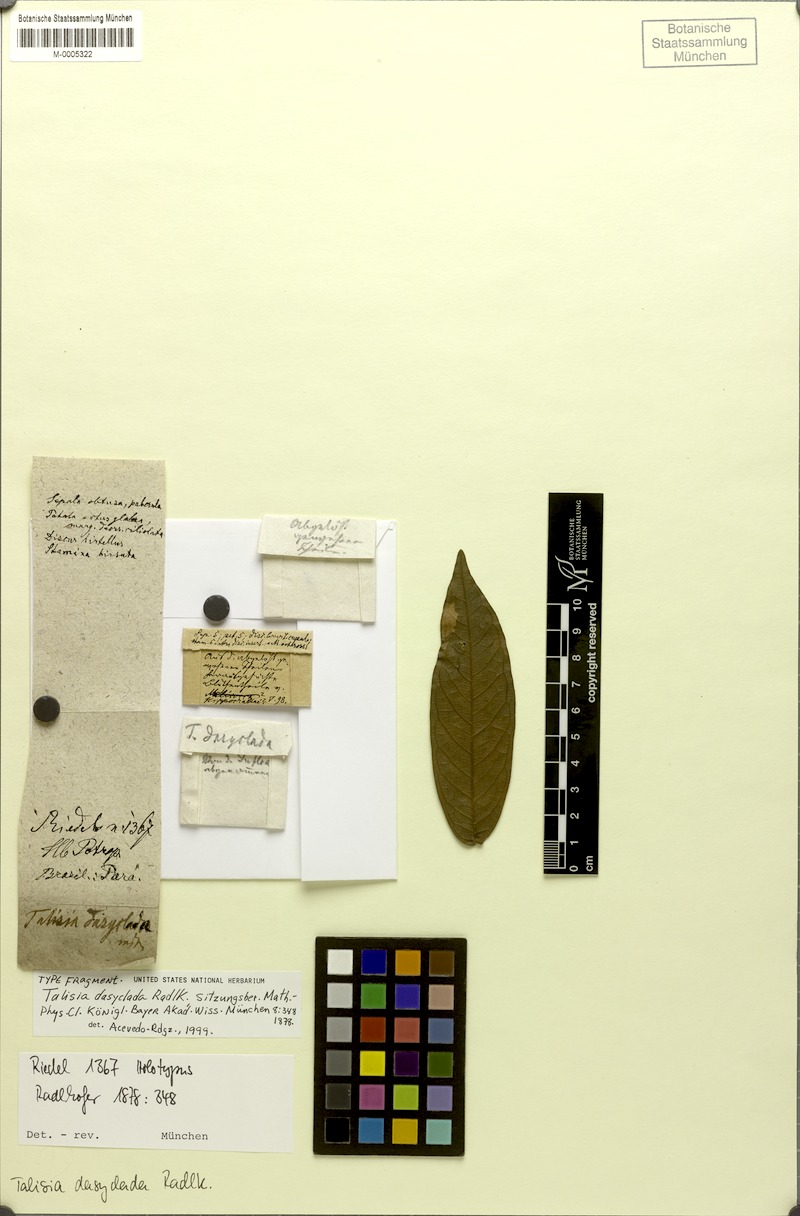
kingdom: Plantae
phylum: Tracheophyta
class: Magnoliopsida
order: Sapindales
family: Sapindaceae
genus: Talisia
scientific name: Talisia dasyclada
